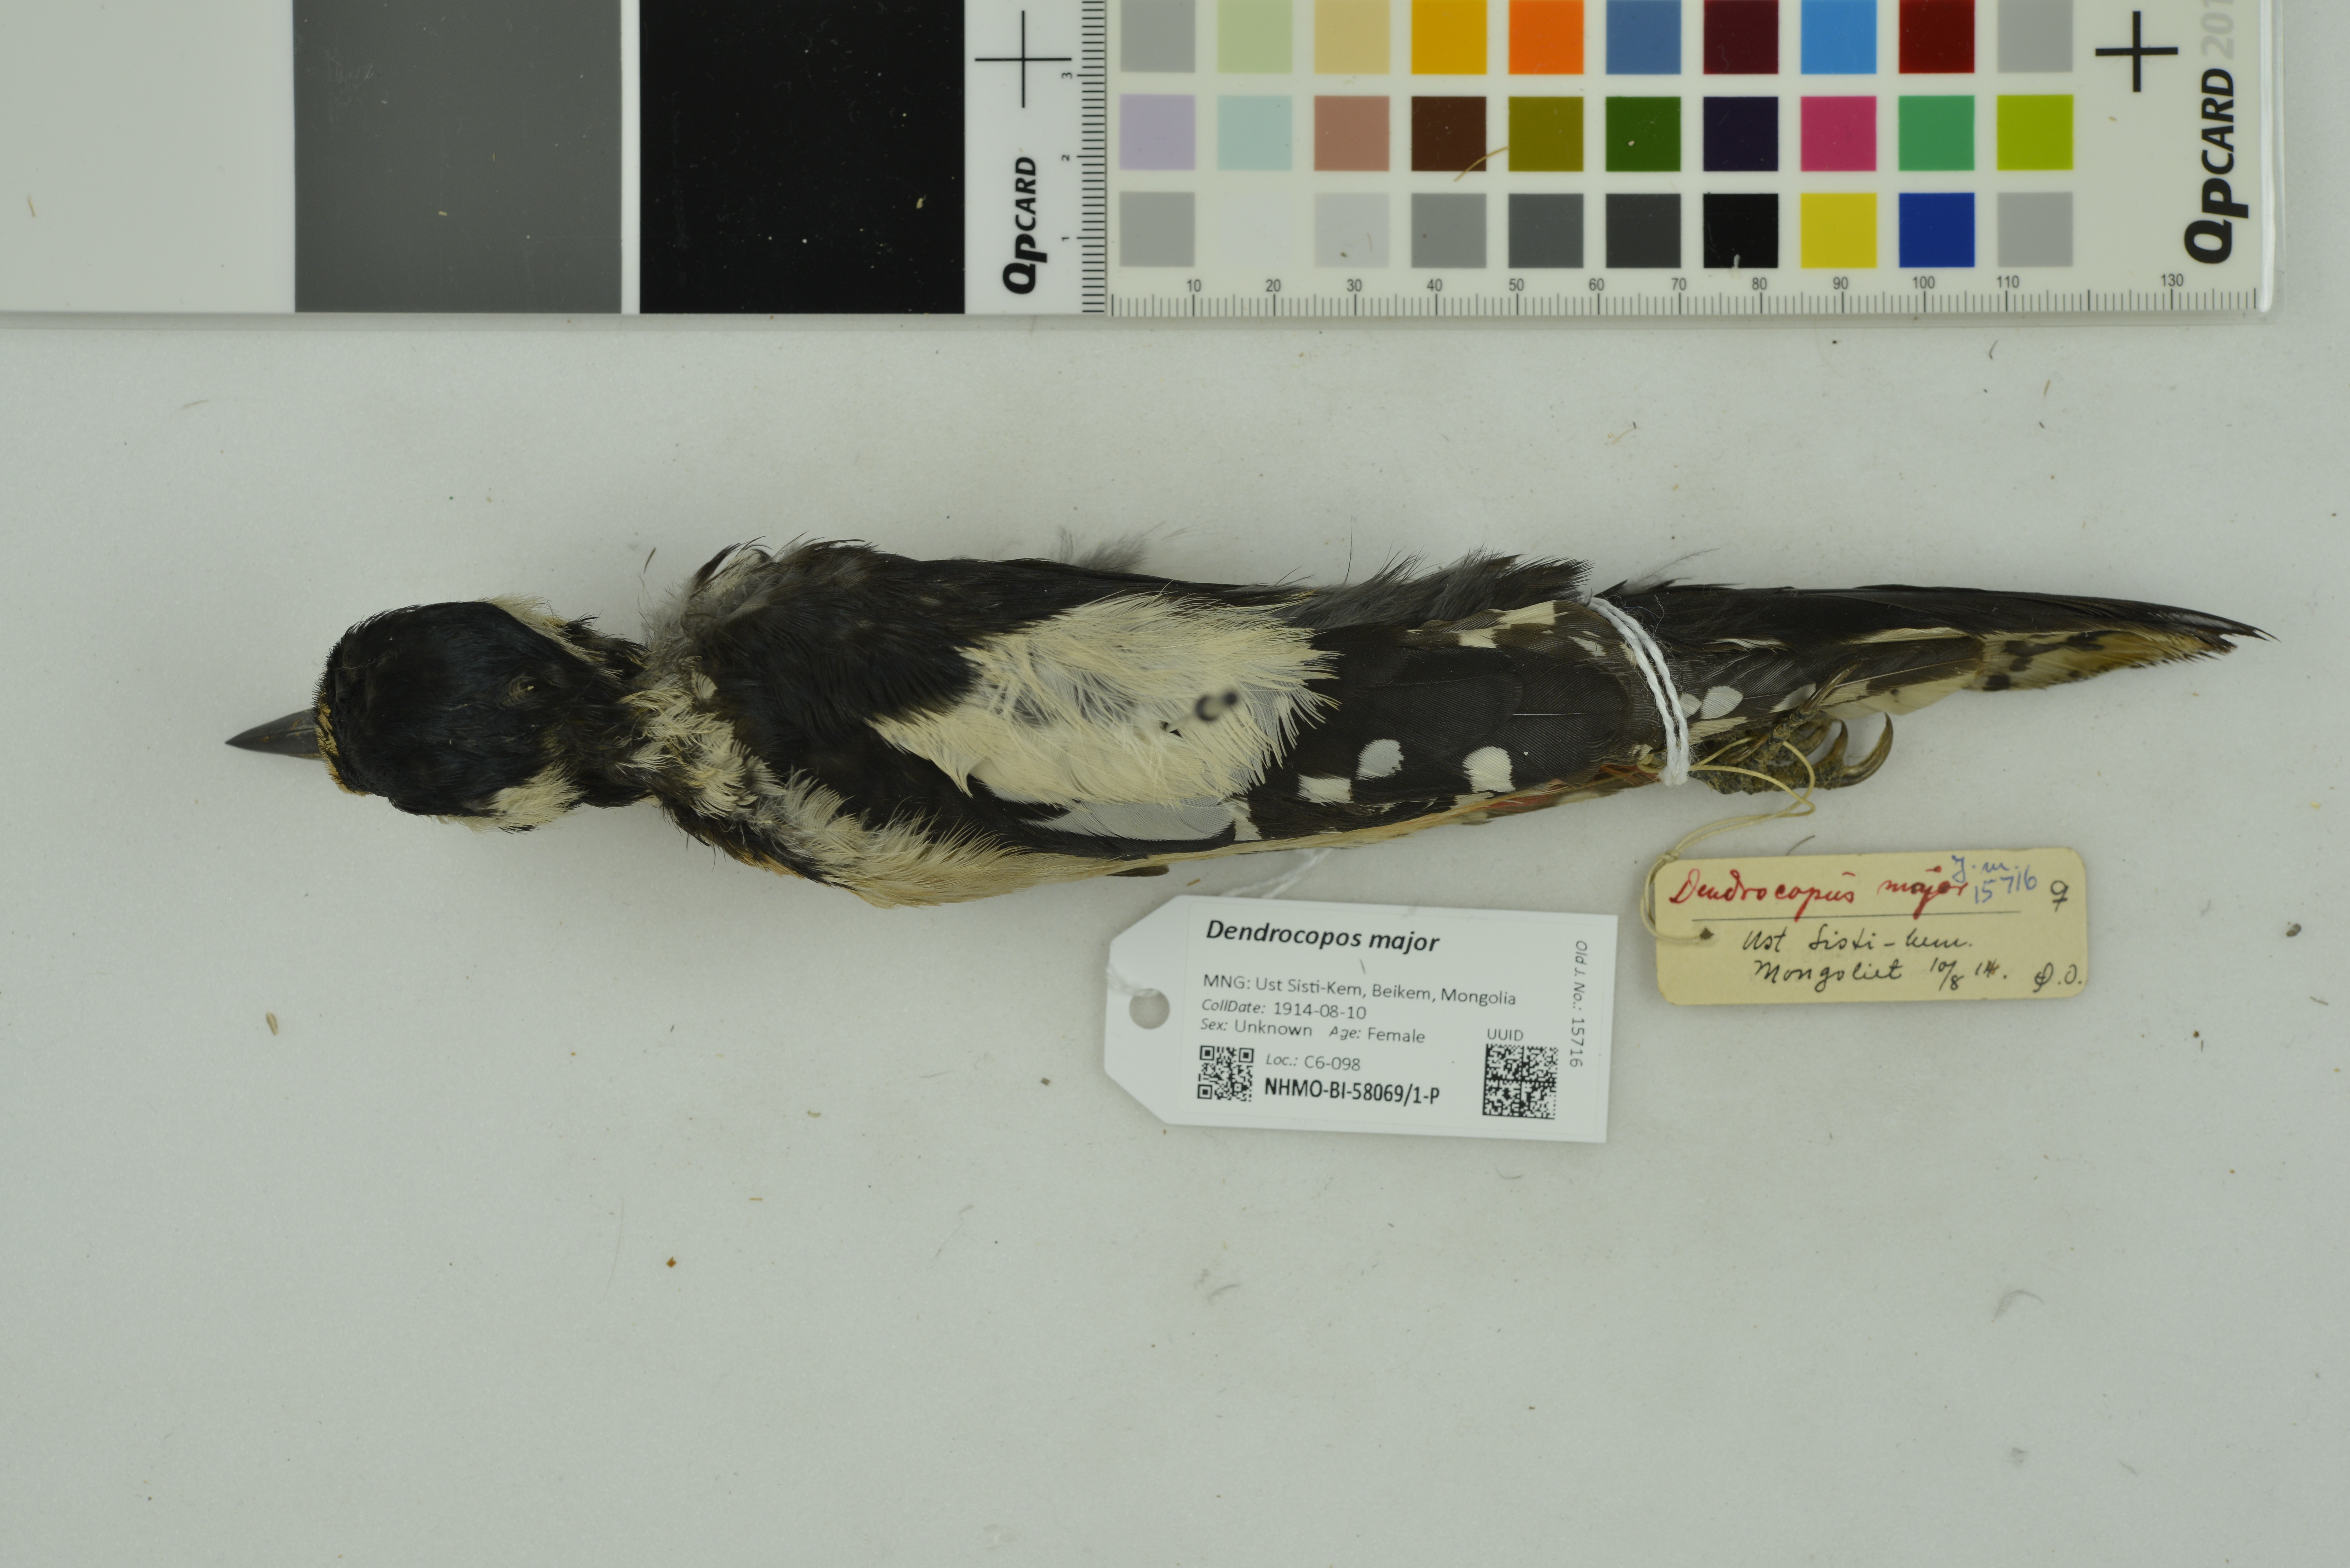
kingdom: Animalia
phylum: Chordata
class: Aves
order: Piciformes
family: Picidae
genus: Dendrocopos
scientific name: Dendrocopos major
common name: Great spotted woodpecker
